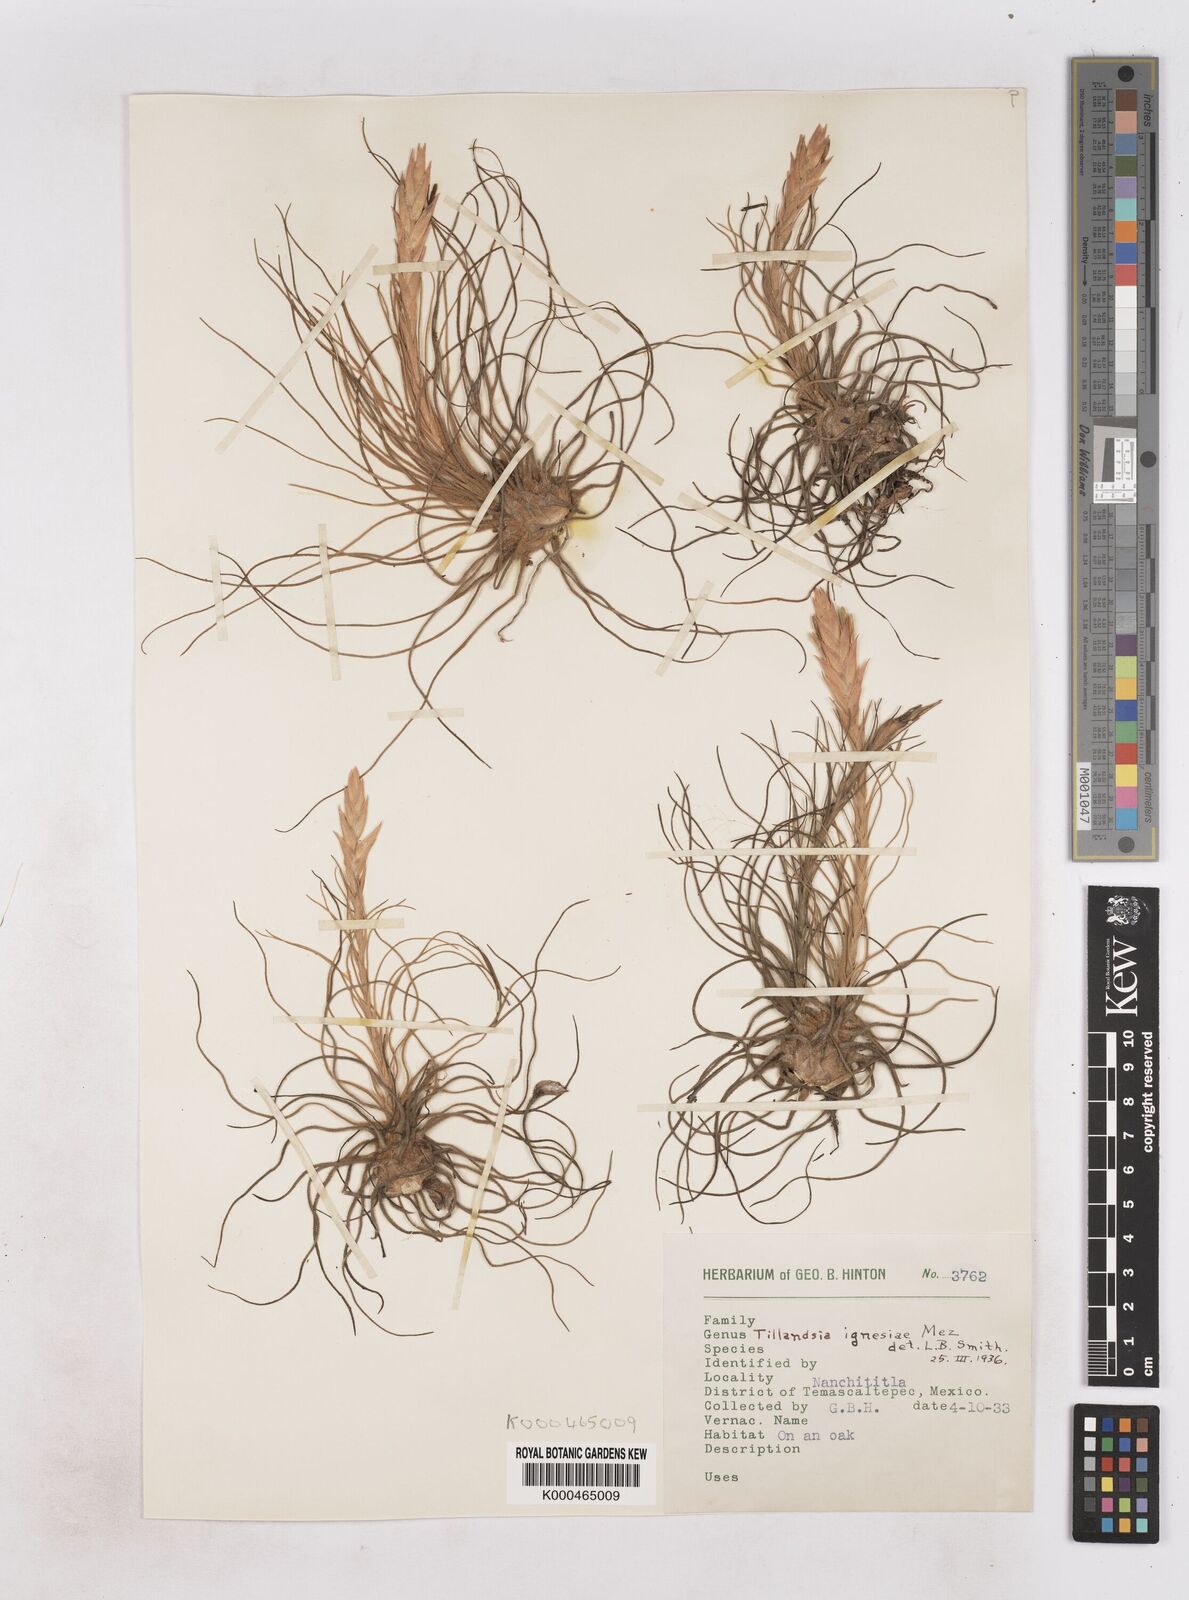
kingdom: Plantae
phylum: Tracheophyta
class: Liliopsida
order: Poales
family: Bromeliaceae
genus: Tillandsia
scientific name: Tillandsia ignesiae
